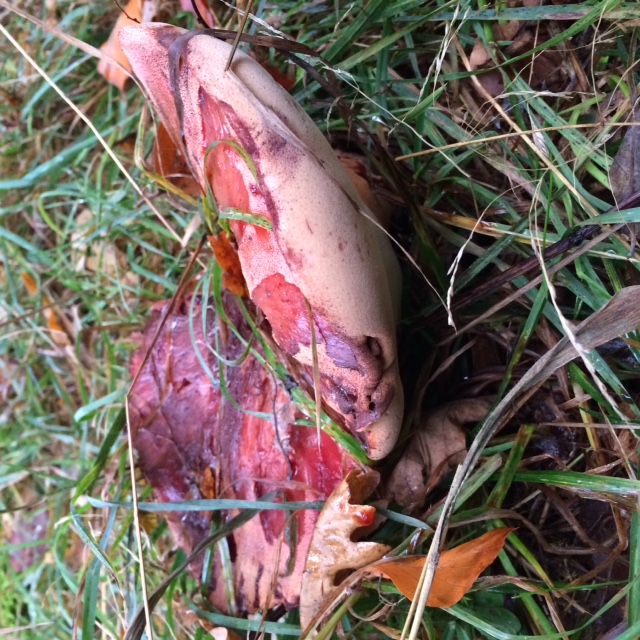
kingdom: Fungi
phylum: Basidiomycota
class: Agaricomycetes
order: Agaricales
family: Fistulinaceae
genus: Fistulina
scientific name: Fistulina hepatica
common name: oksetunge
